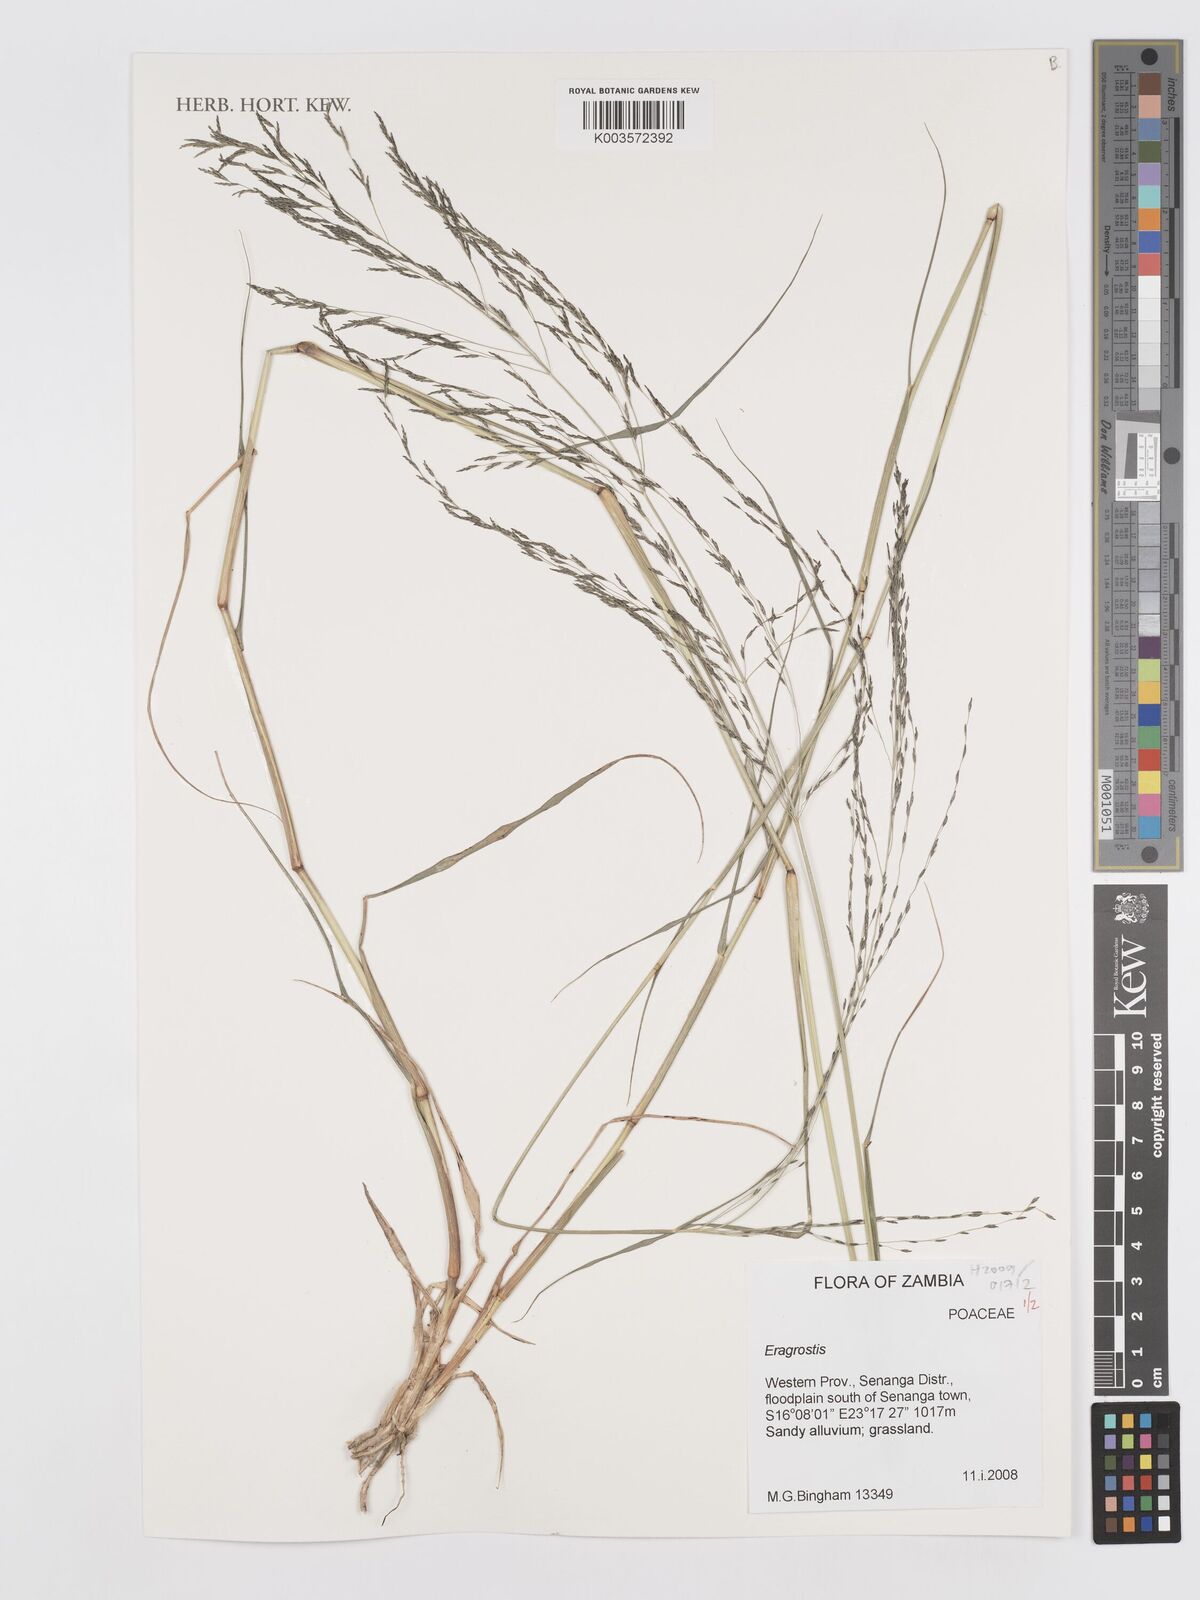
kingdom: Plantae
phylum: Tracheophyta
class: Liliopsida
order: Poales
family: Poaceae
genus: Eragrostis
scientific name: Eragrostis
